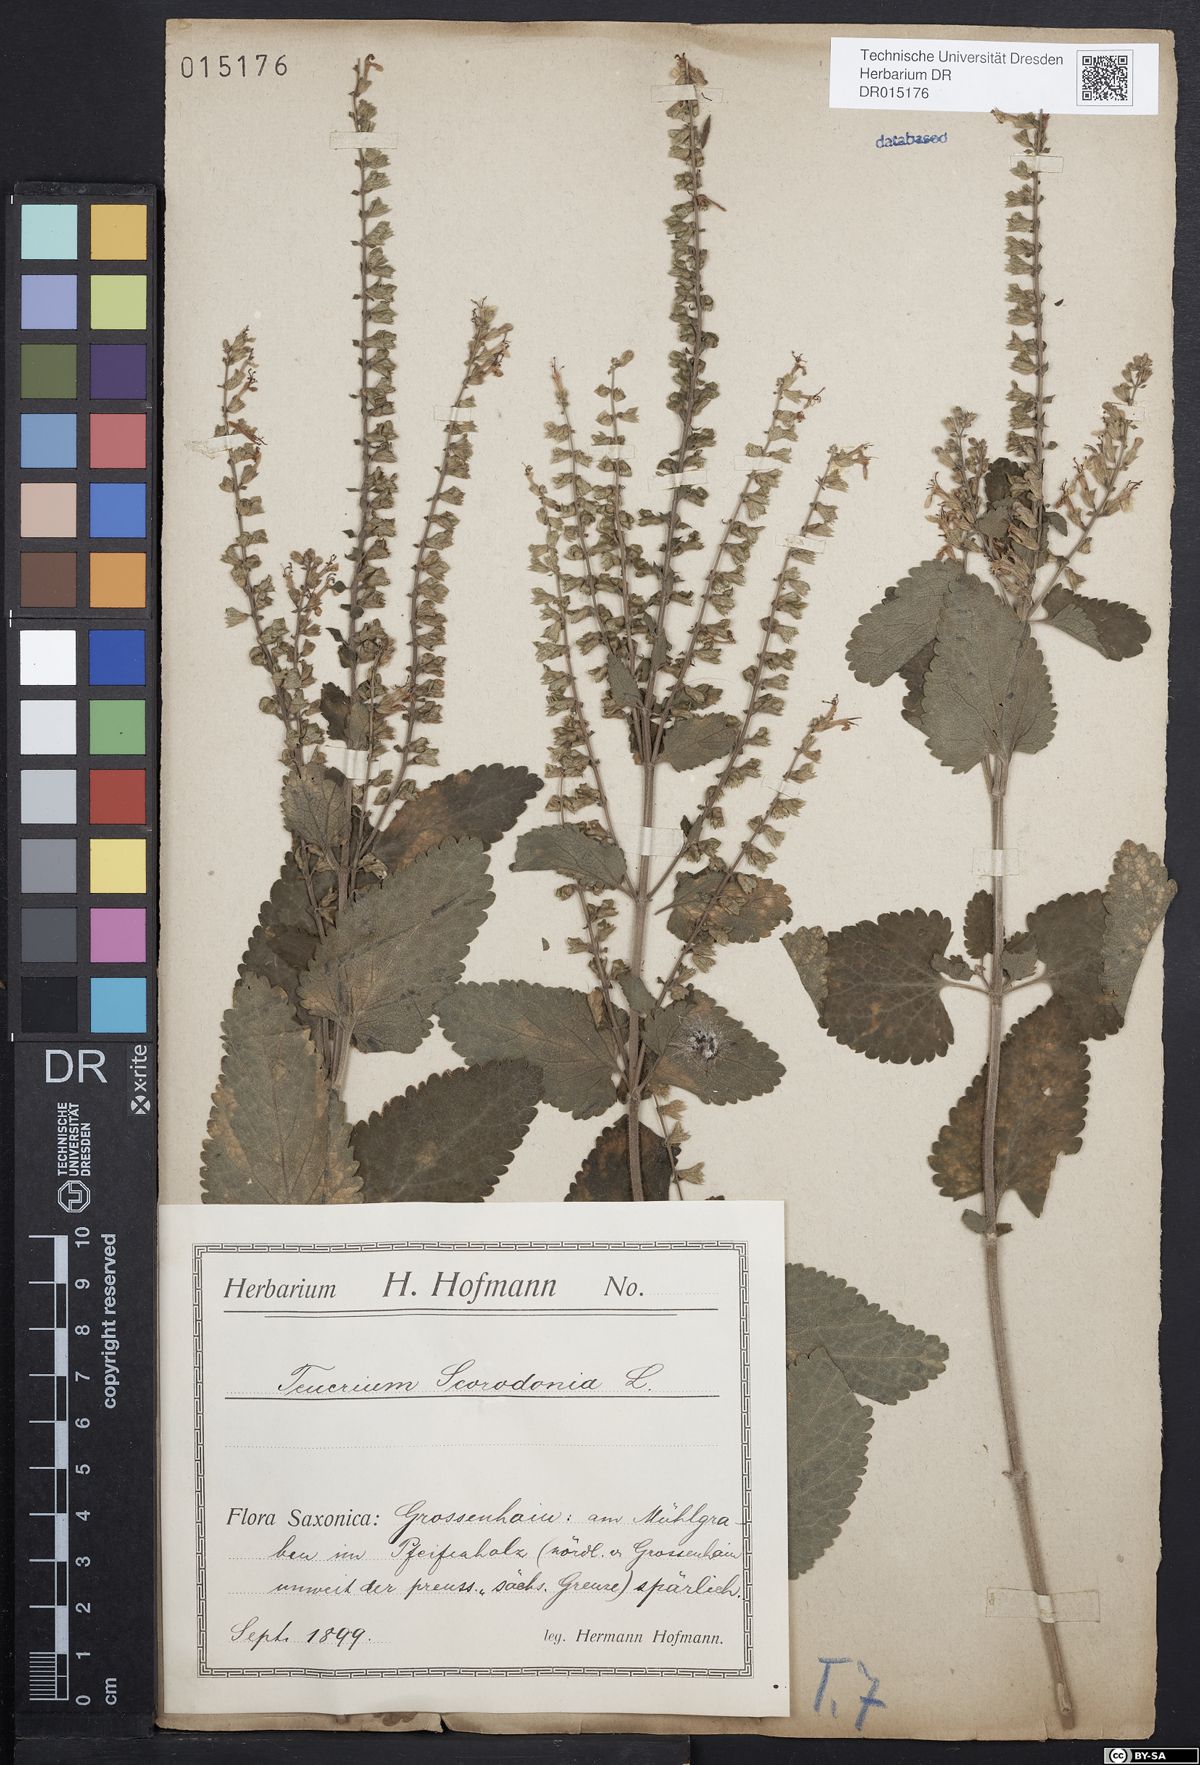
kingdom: Plantae
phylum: Tracheophyta
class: Magnoliopsida
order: Lamiales
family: Lamiaceae
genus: Teucrium
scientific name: Teucrium scorodonia
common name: Woodland germander
